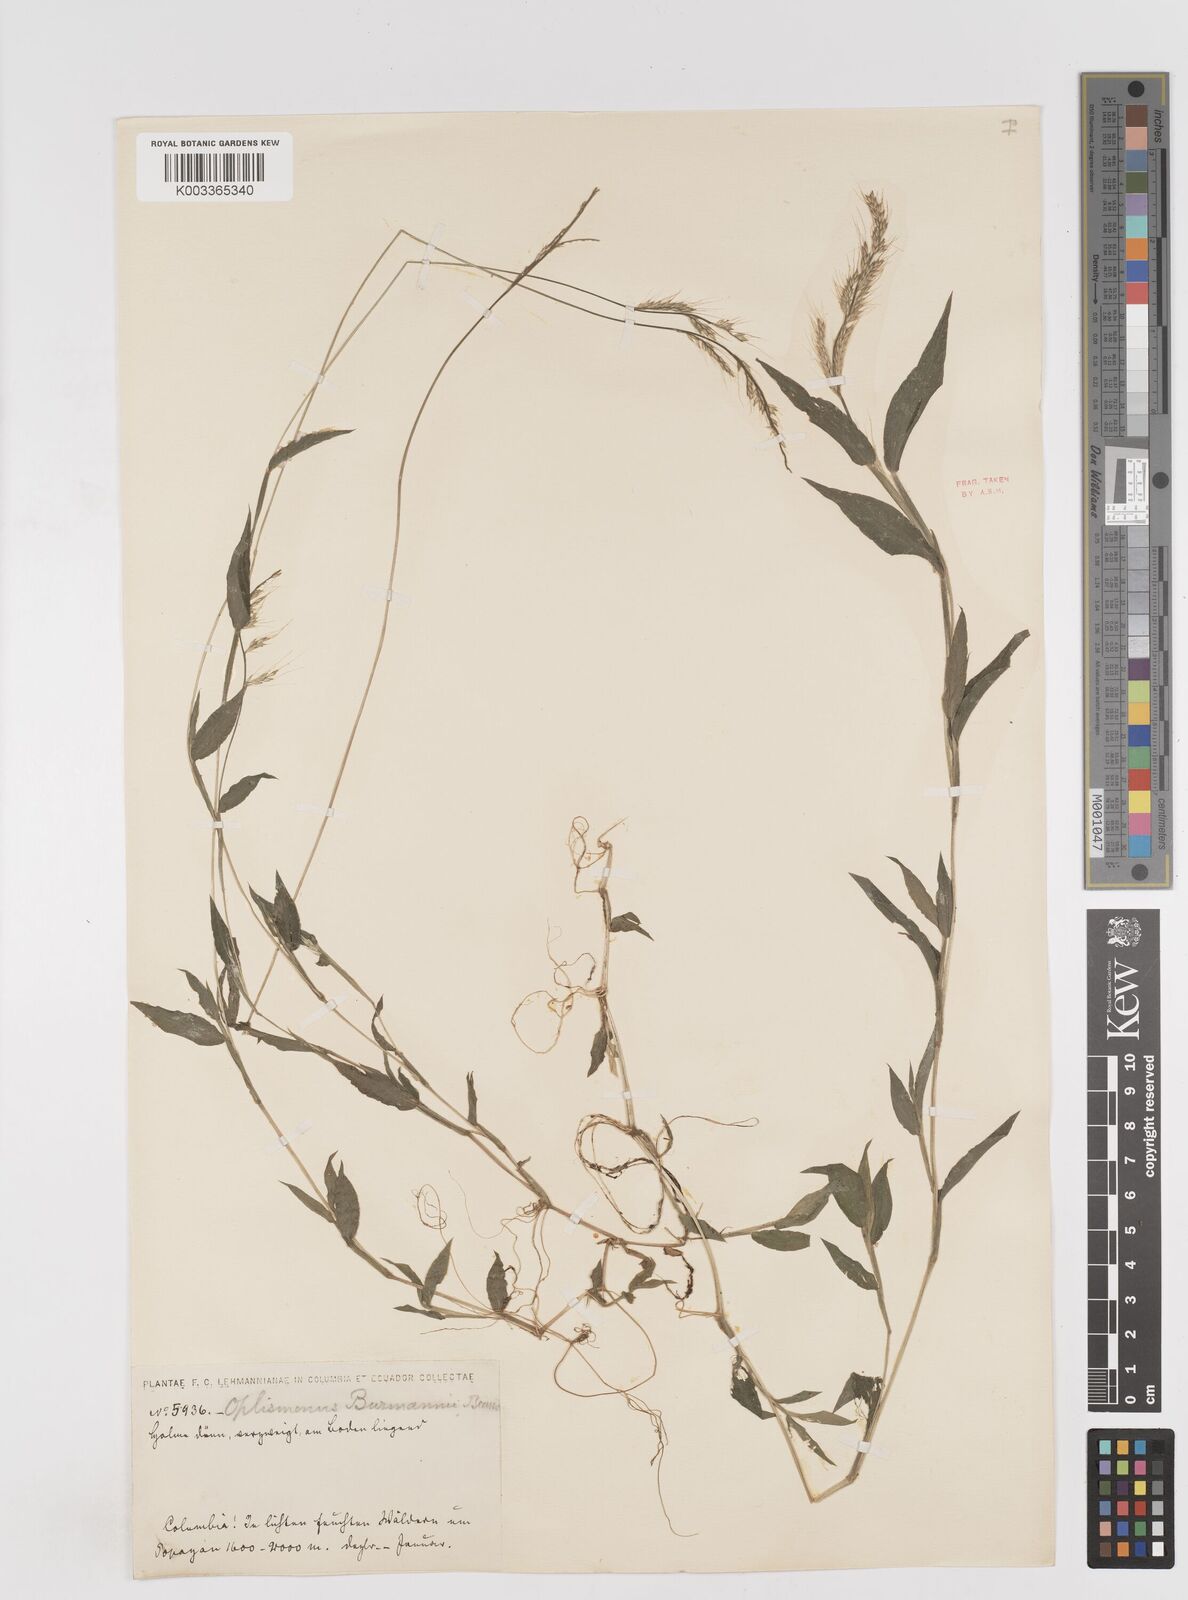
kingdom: Plantae
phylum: Tracheophyta
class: Liliopsida
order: Poales
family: Poaceae
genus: Oplismenus
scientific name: Oplismenus burmanni
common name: Burmann's basketgrass
